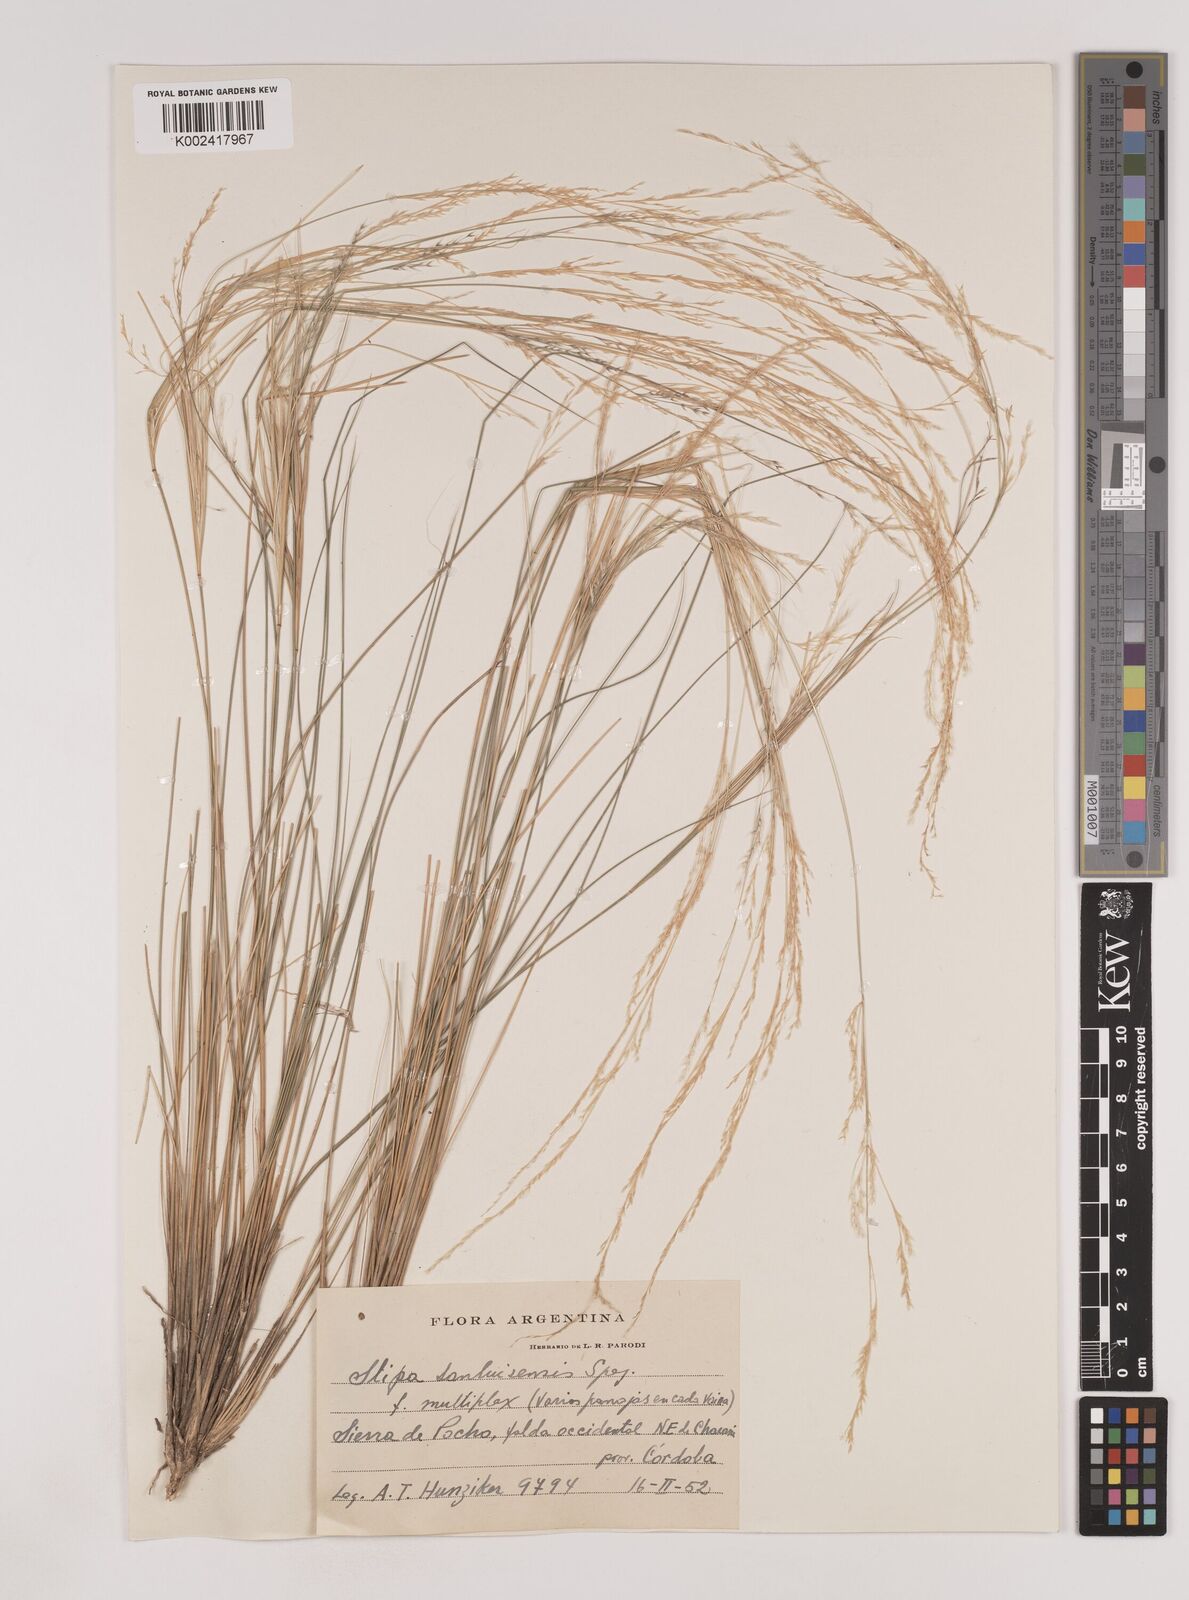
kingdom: Plantae
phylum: Tracheophyta
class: Liliopsida
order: Poales
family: Poaceae
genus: Nassella
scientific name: Nassella sanluisensis
